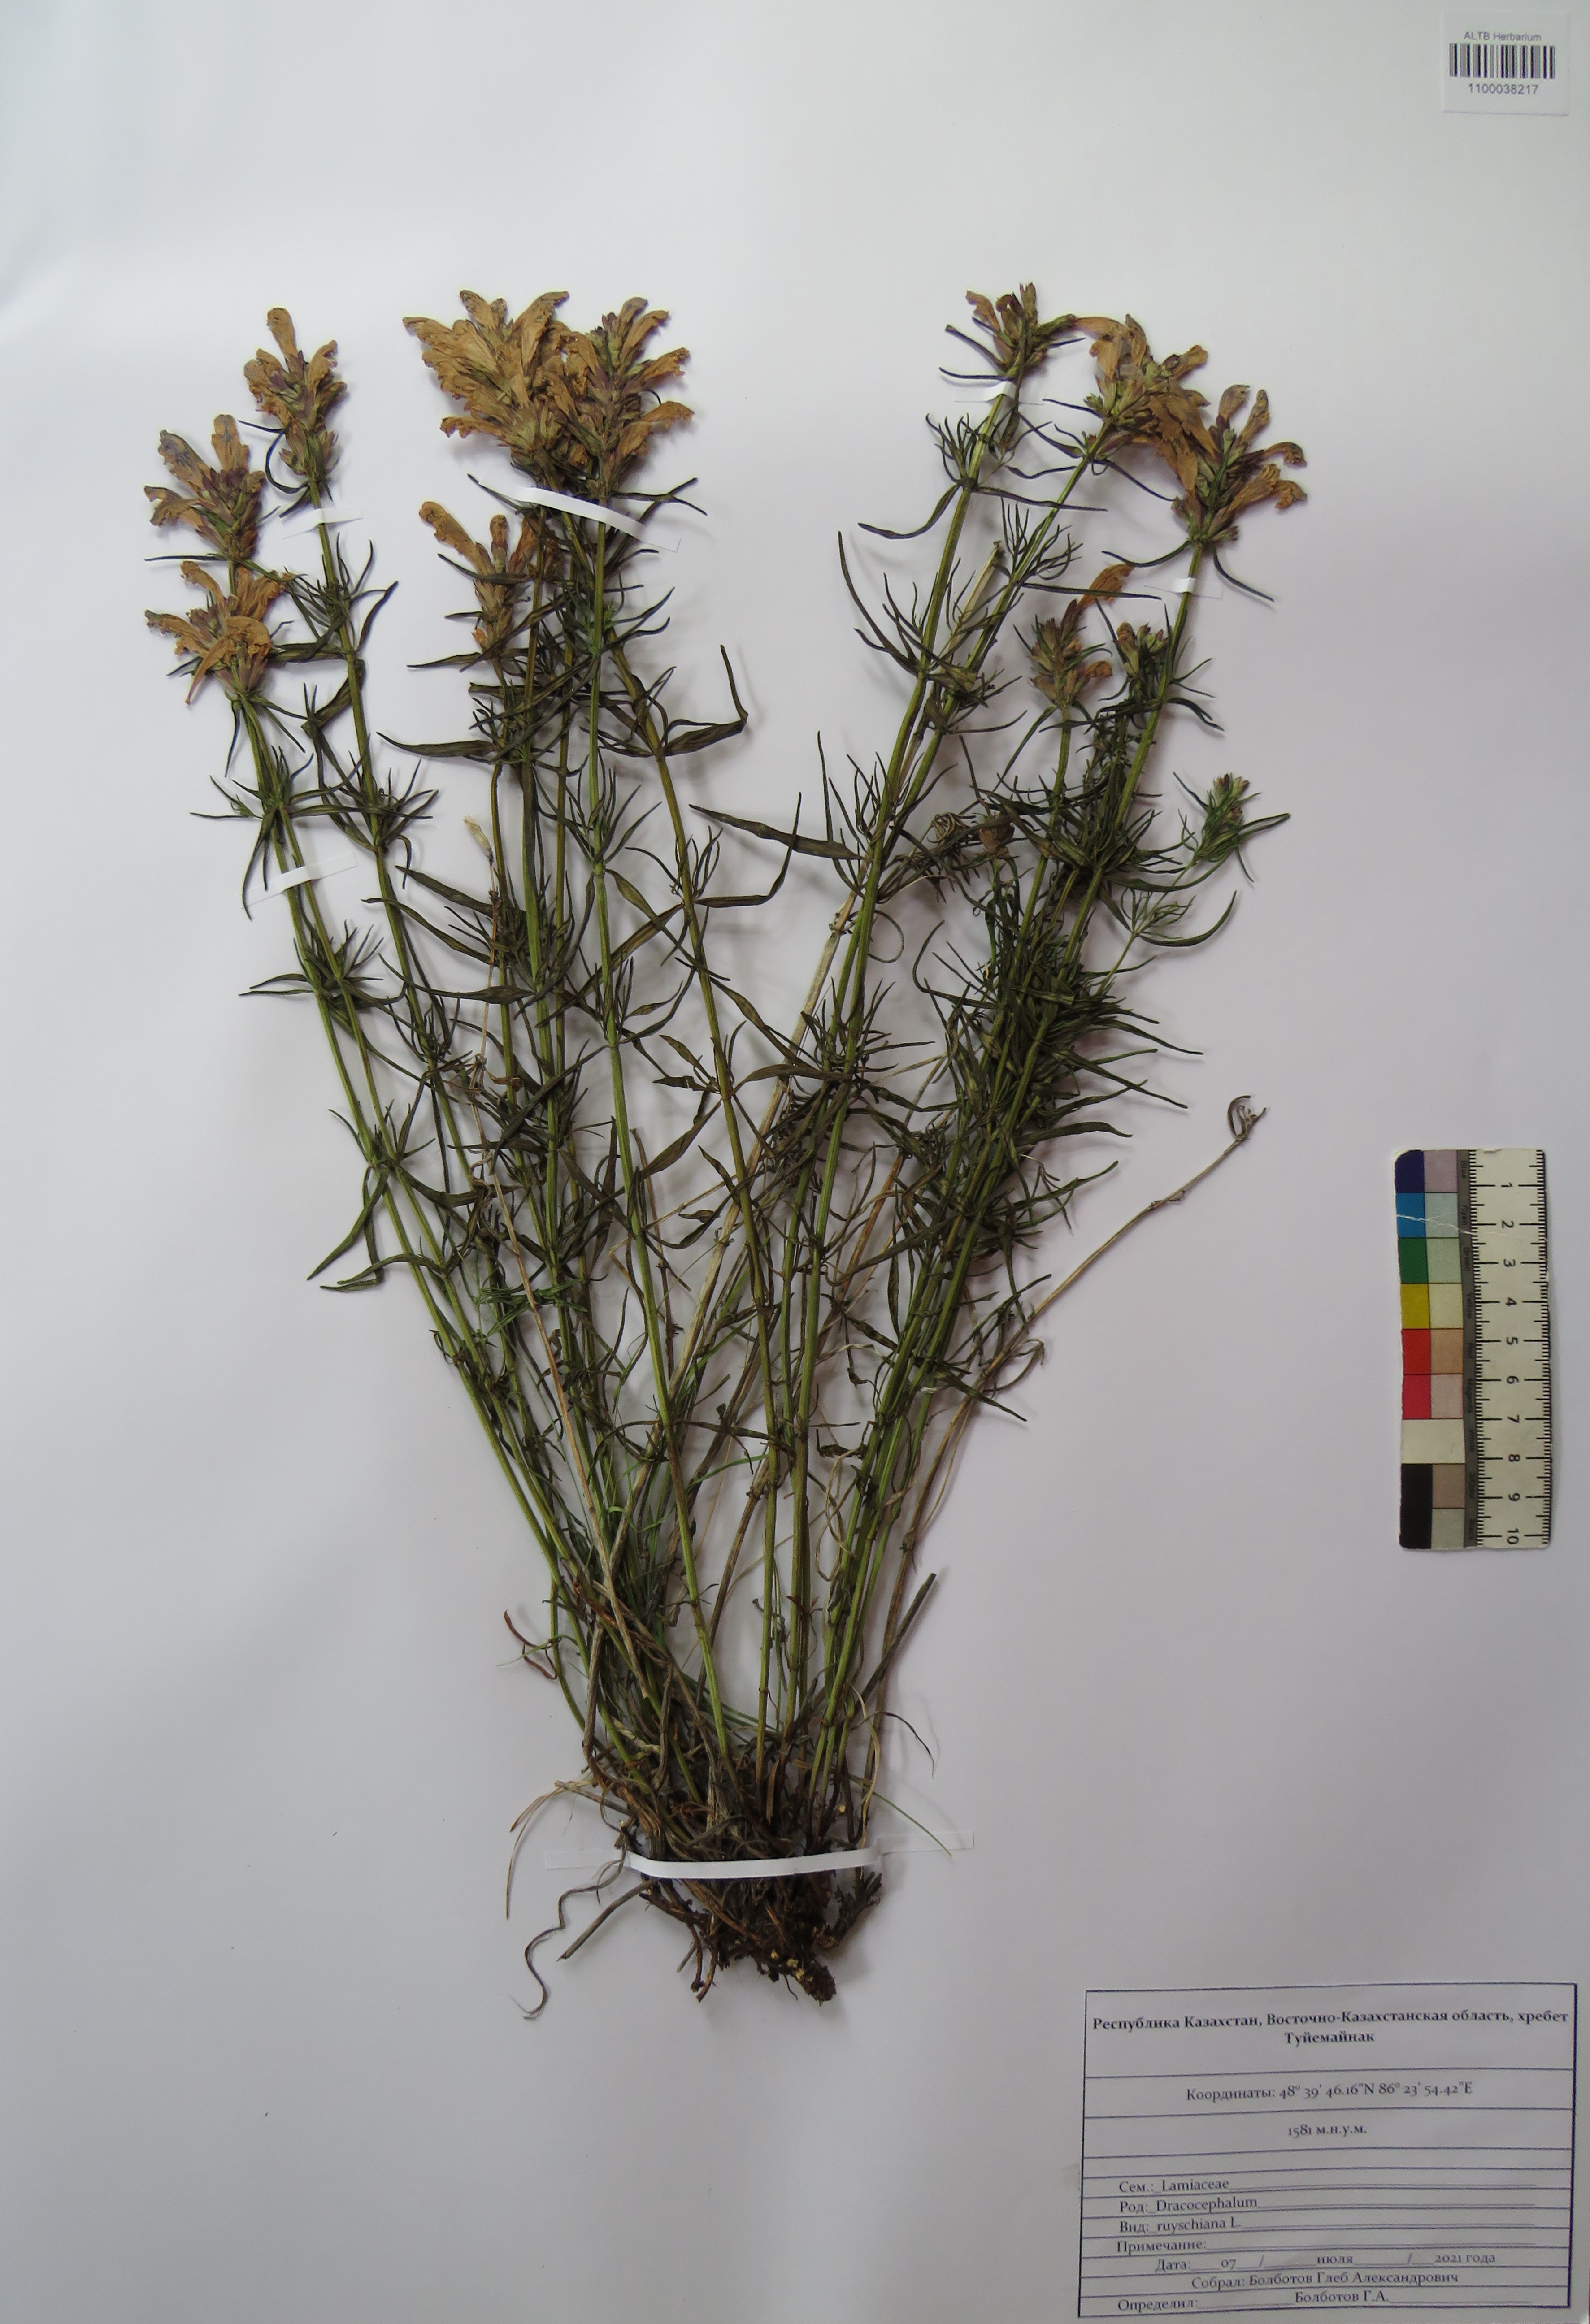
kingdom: Plantae
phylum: Tracheophyta
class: Magnoliopsida
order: Lamiales
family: Lamiaceae
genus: Dracocephalum
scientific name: Dracocephalum ruyschiana
